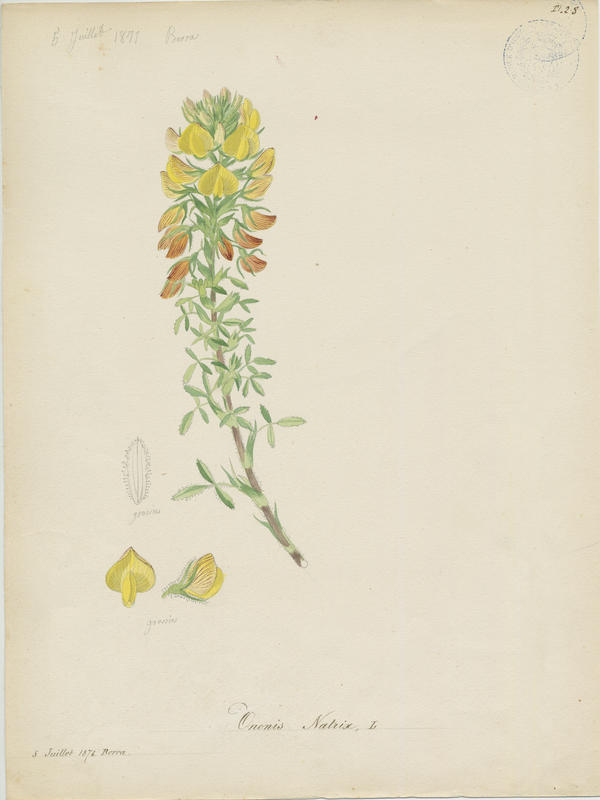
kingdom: Plantae
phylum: Tracheophyta
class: Magnoliopsida
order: Fabales
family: Fabaceae
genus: Ononis
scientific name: Ononis natrix
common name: Yellow restharrow
